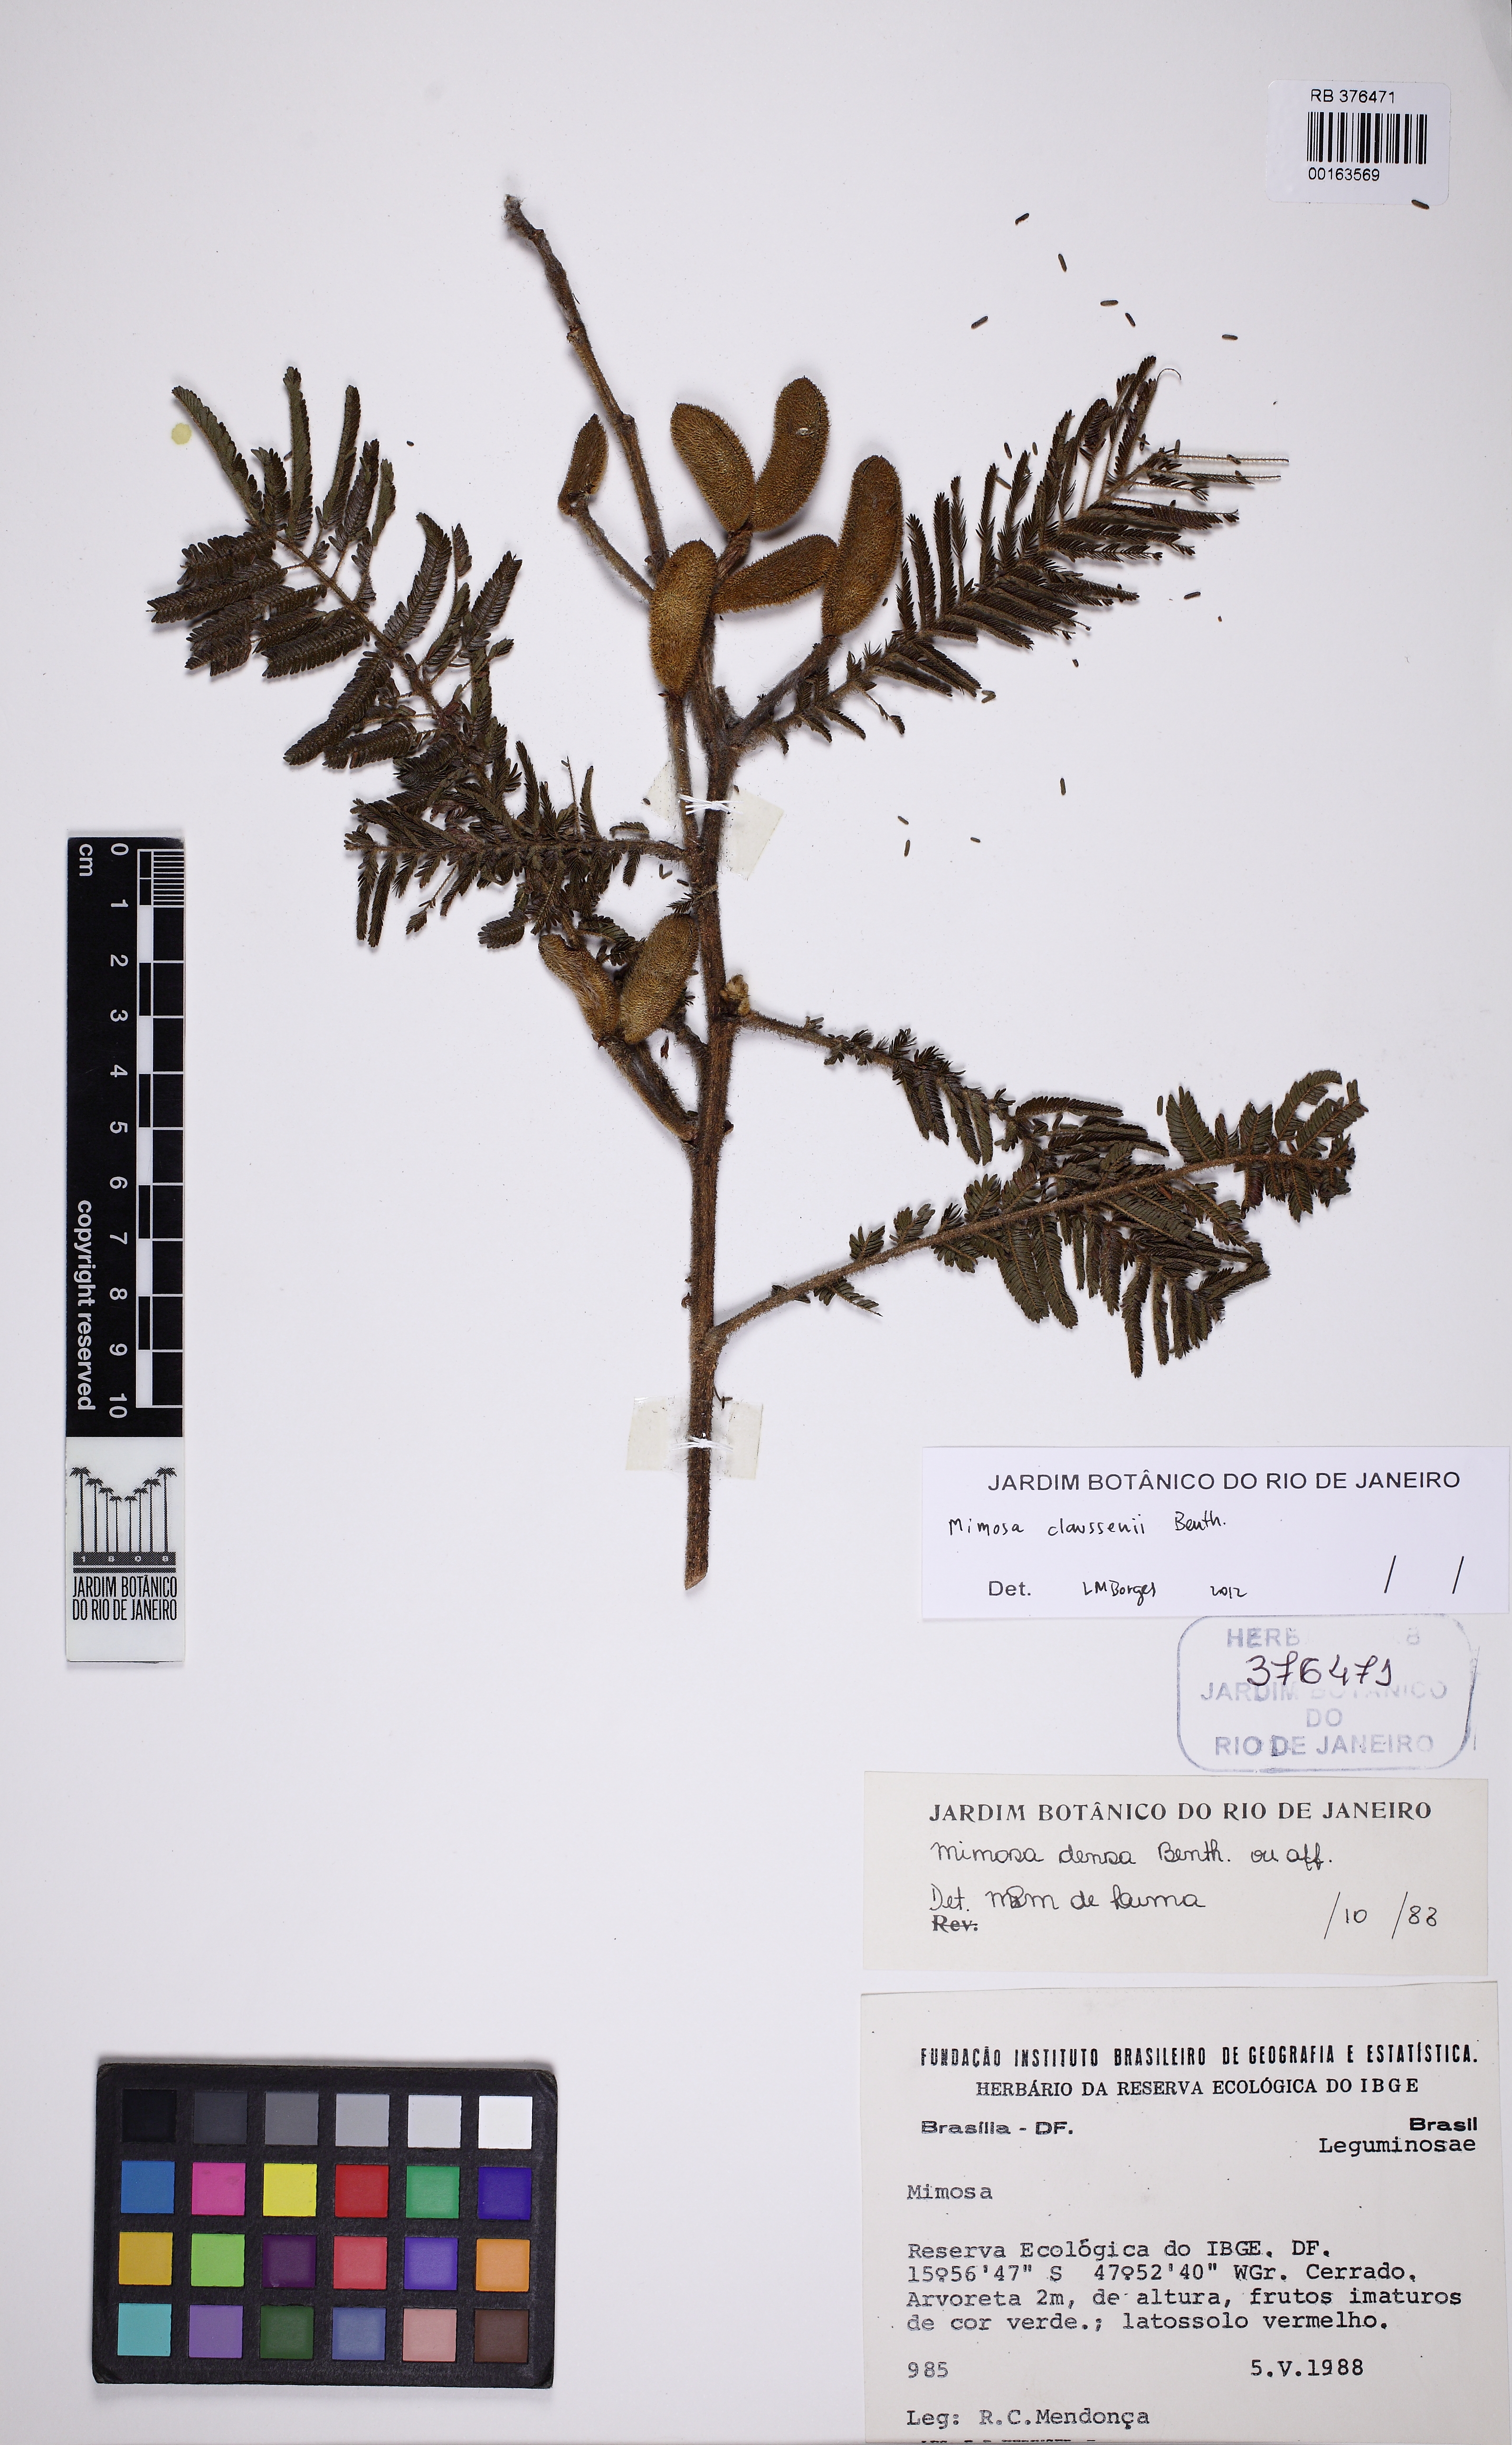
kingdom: Plantae
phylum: Tracheophyta
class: Magnoliopsida
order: Fabales
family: Fabaceae
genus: Mimosa
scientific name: Mimosa claussenii
